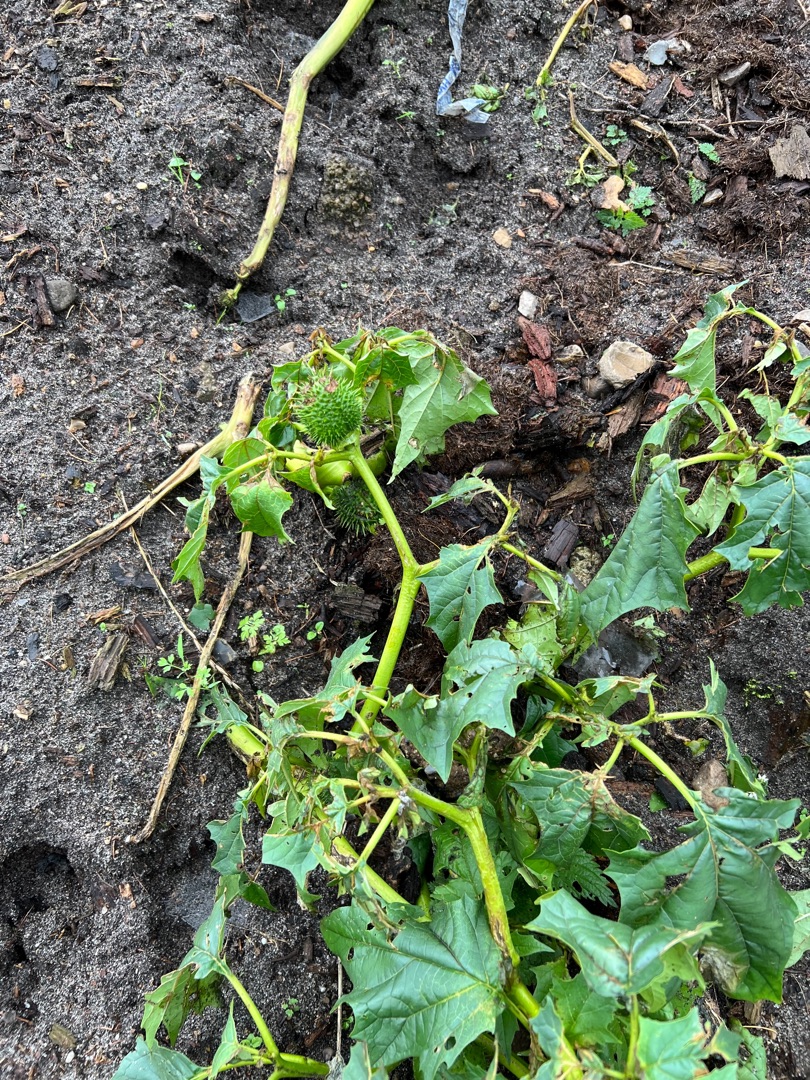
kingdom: Plantae
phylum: Tracheophyta
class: Magnoliopsida
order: Solanales
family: Solanaceae
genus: Datura
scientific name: Datura stramonium
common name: Pigæble
